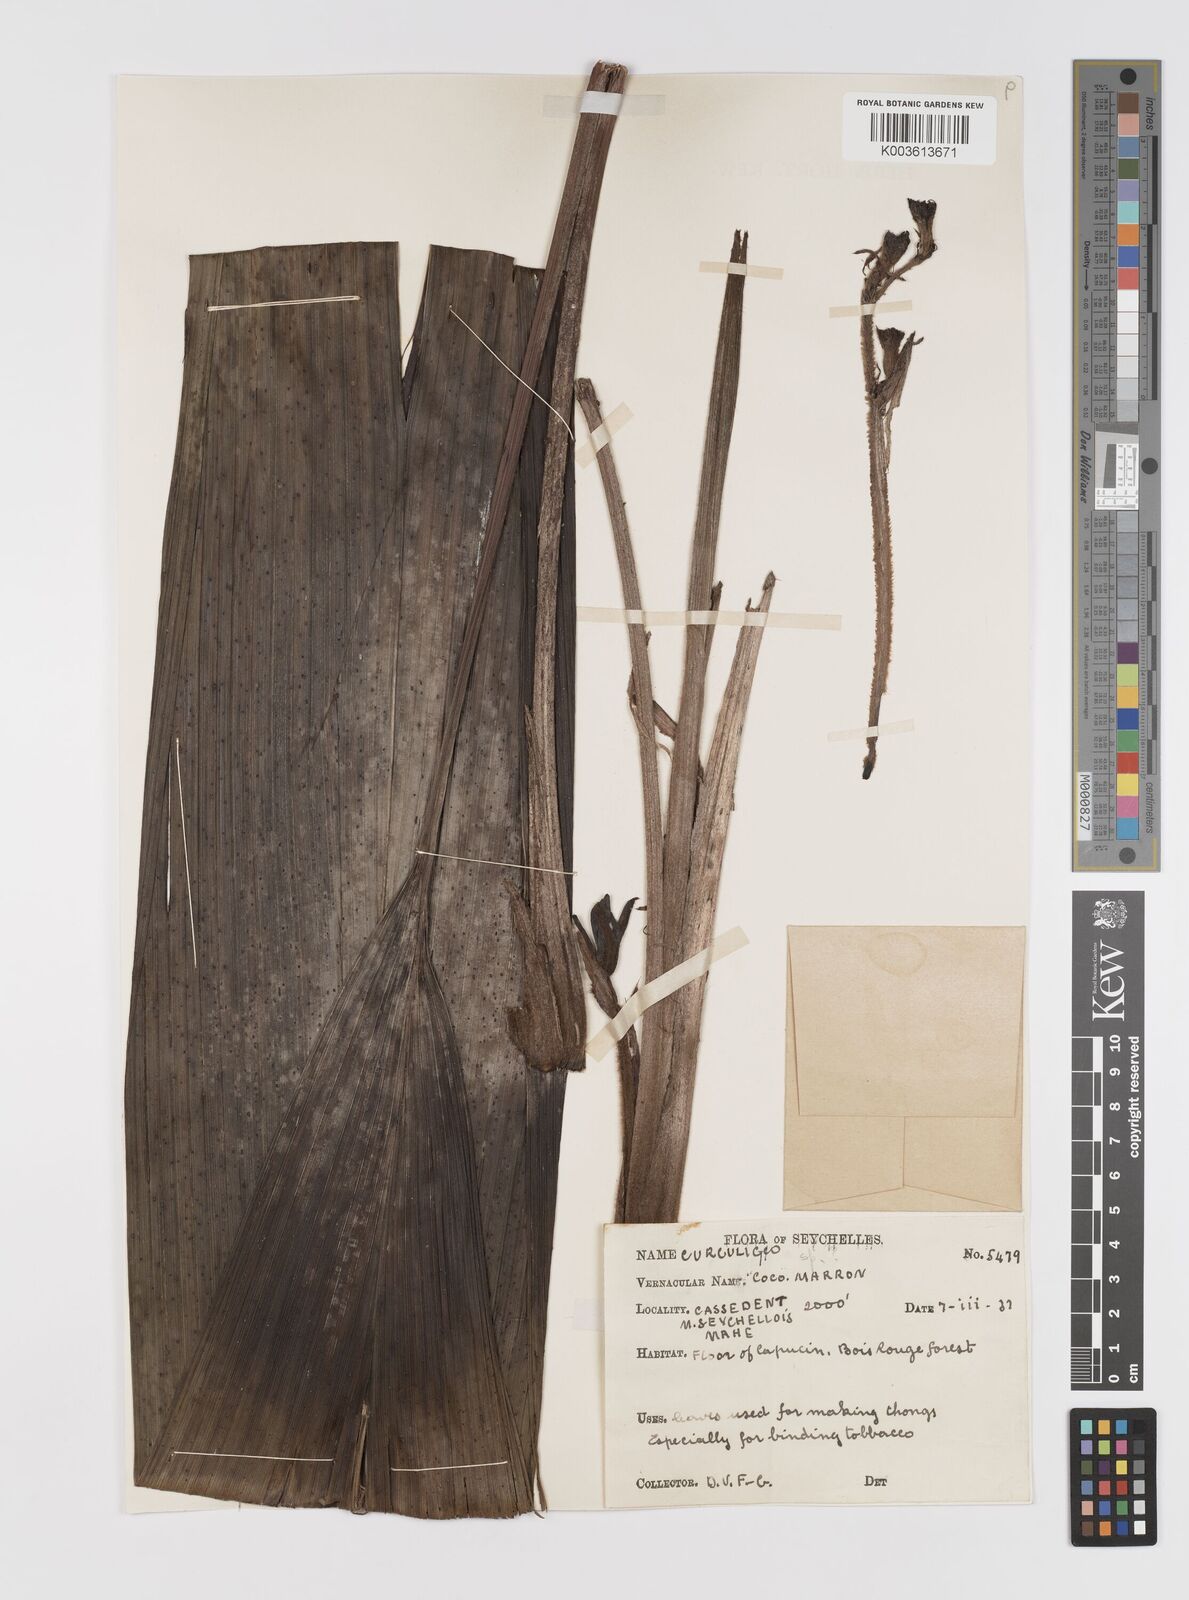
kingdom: Plantae
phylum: Tracheophyta
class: Liliopsida
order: Asparagales
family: Hypoxidaceae
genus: Curculigo
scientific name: Curculigo maheensis
